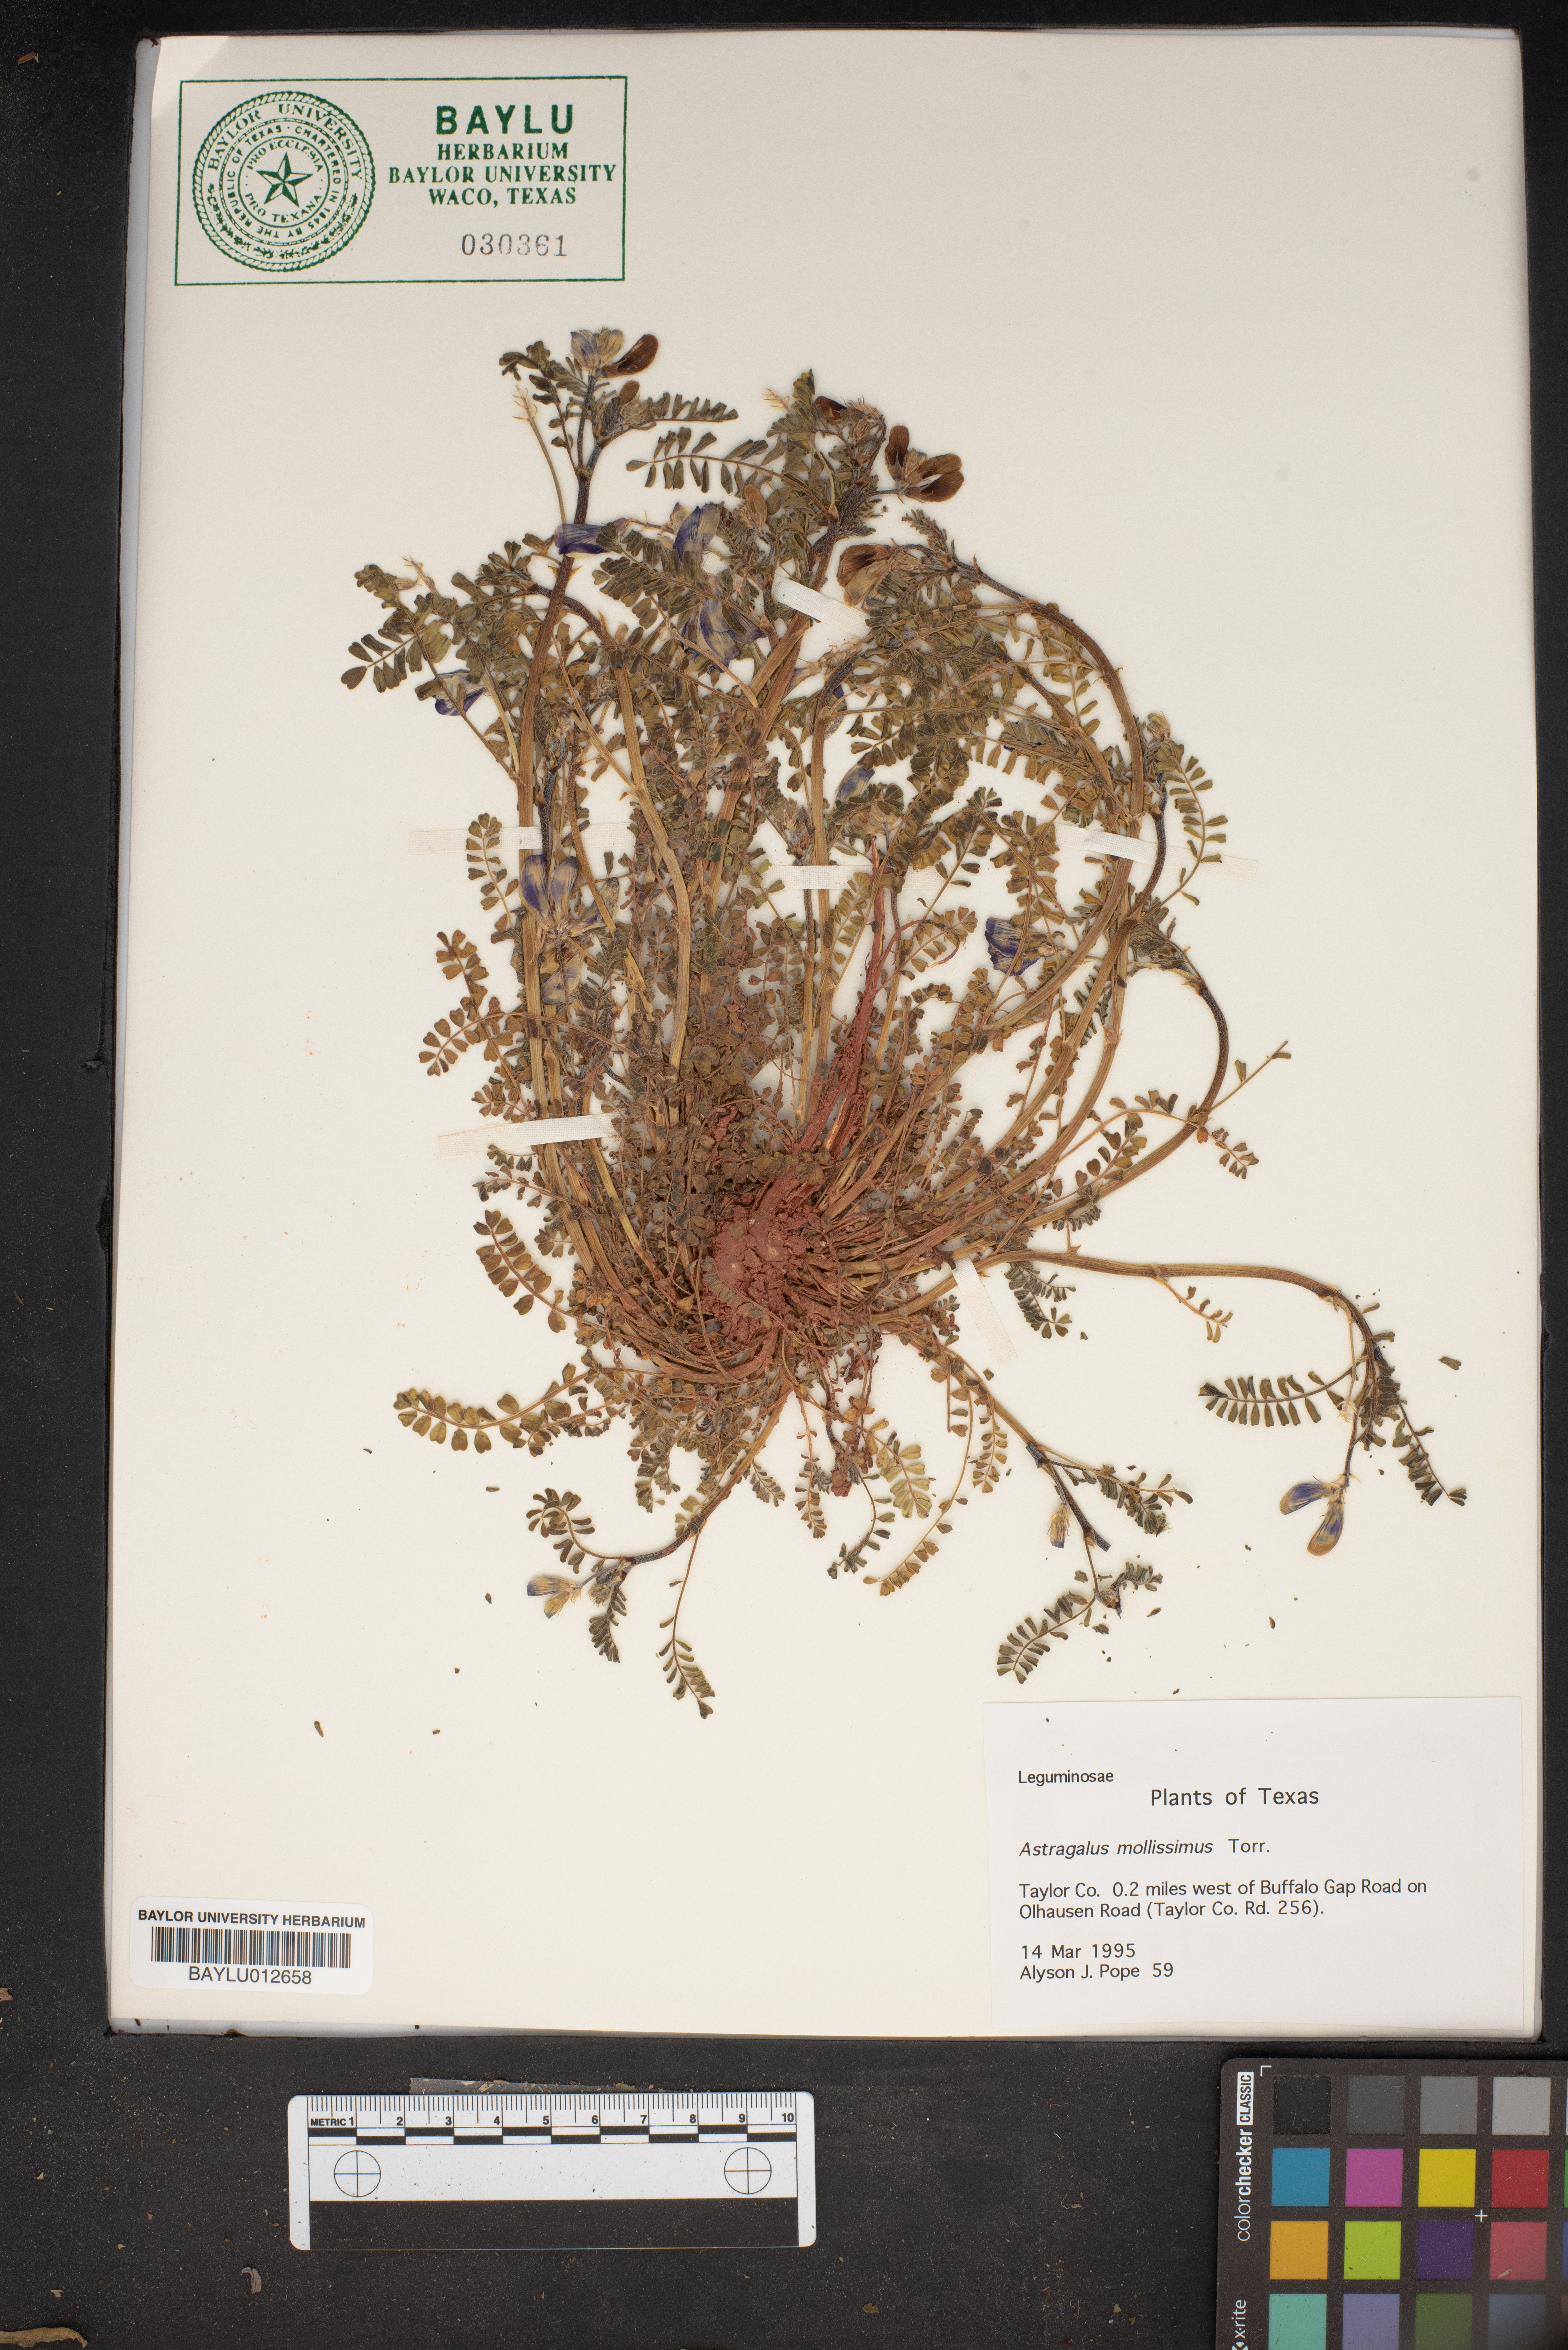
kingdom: Plantae
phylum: Tracheophyta
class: Magnoliopsida
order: Fabales
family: Fabaceae
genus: Astragalus
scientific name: Astragalus mollissimus
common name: Woolly locoweed
